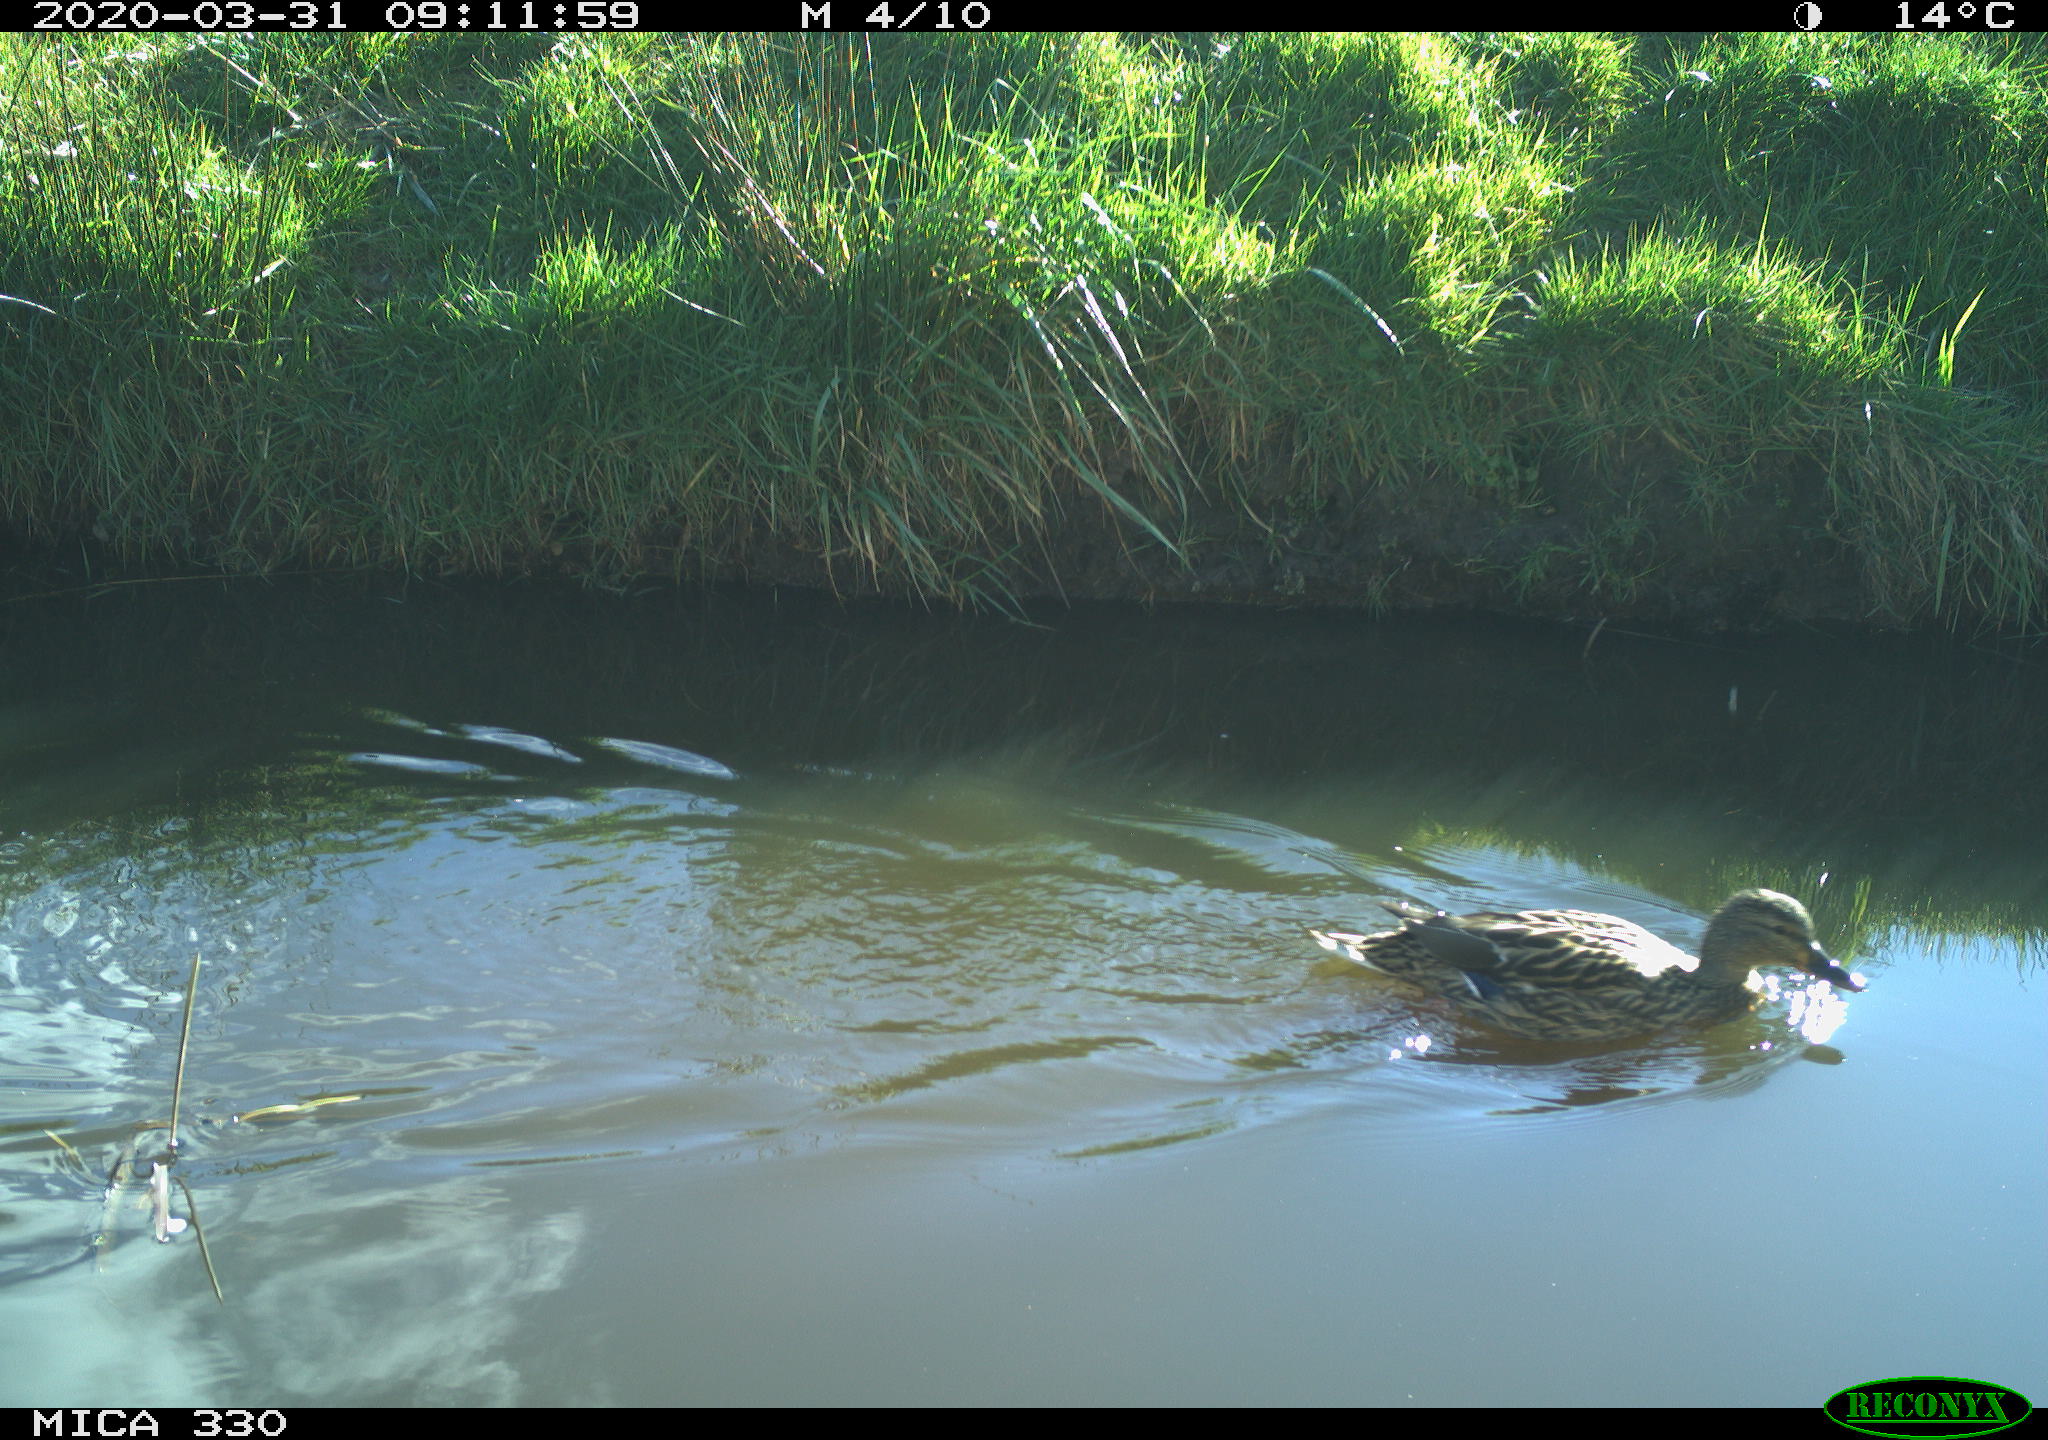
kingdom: Animalia
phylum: Chordata
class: Aves
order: Anseriformes
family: Anatidae
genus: Mareca
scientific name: Mareca strepera
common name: Gadwall
